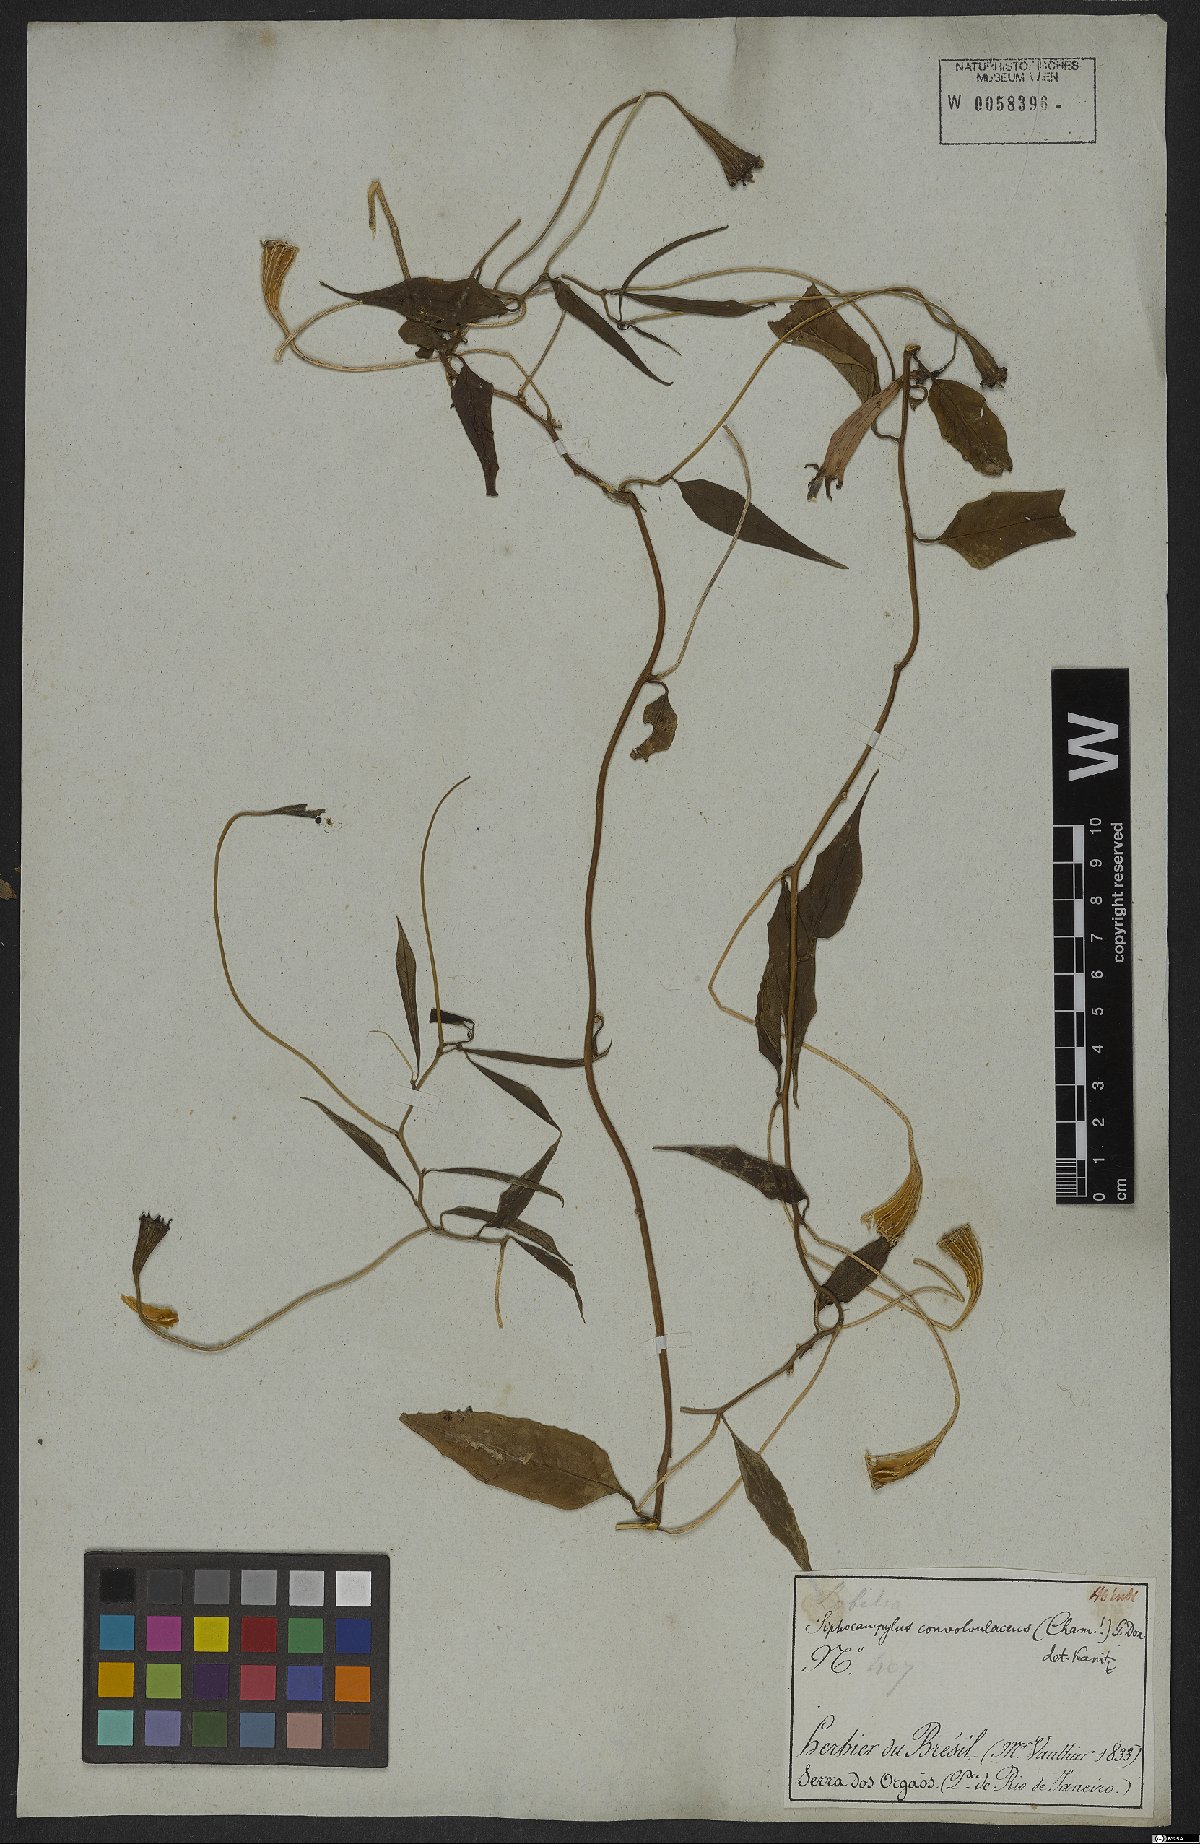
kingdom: Plantae
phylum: Tracheophyta
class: Magnoliopsida
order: Asterales
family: Campanulaceae
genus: Siphocampylus
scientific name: Siphocampylus convolvulaceus
